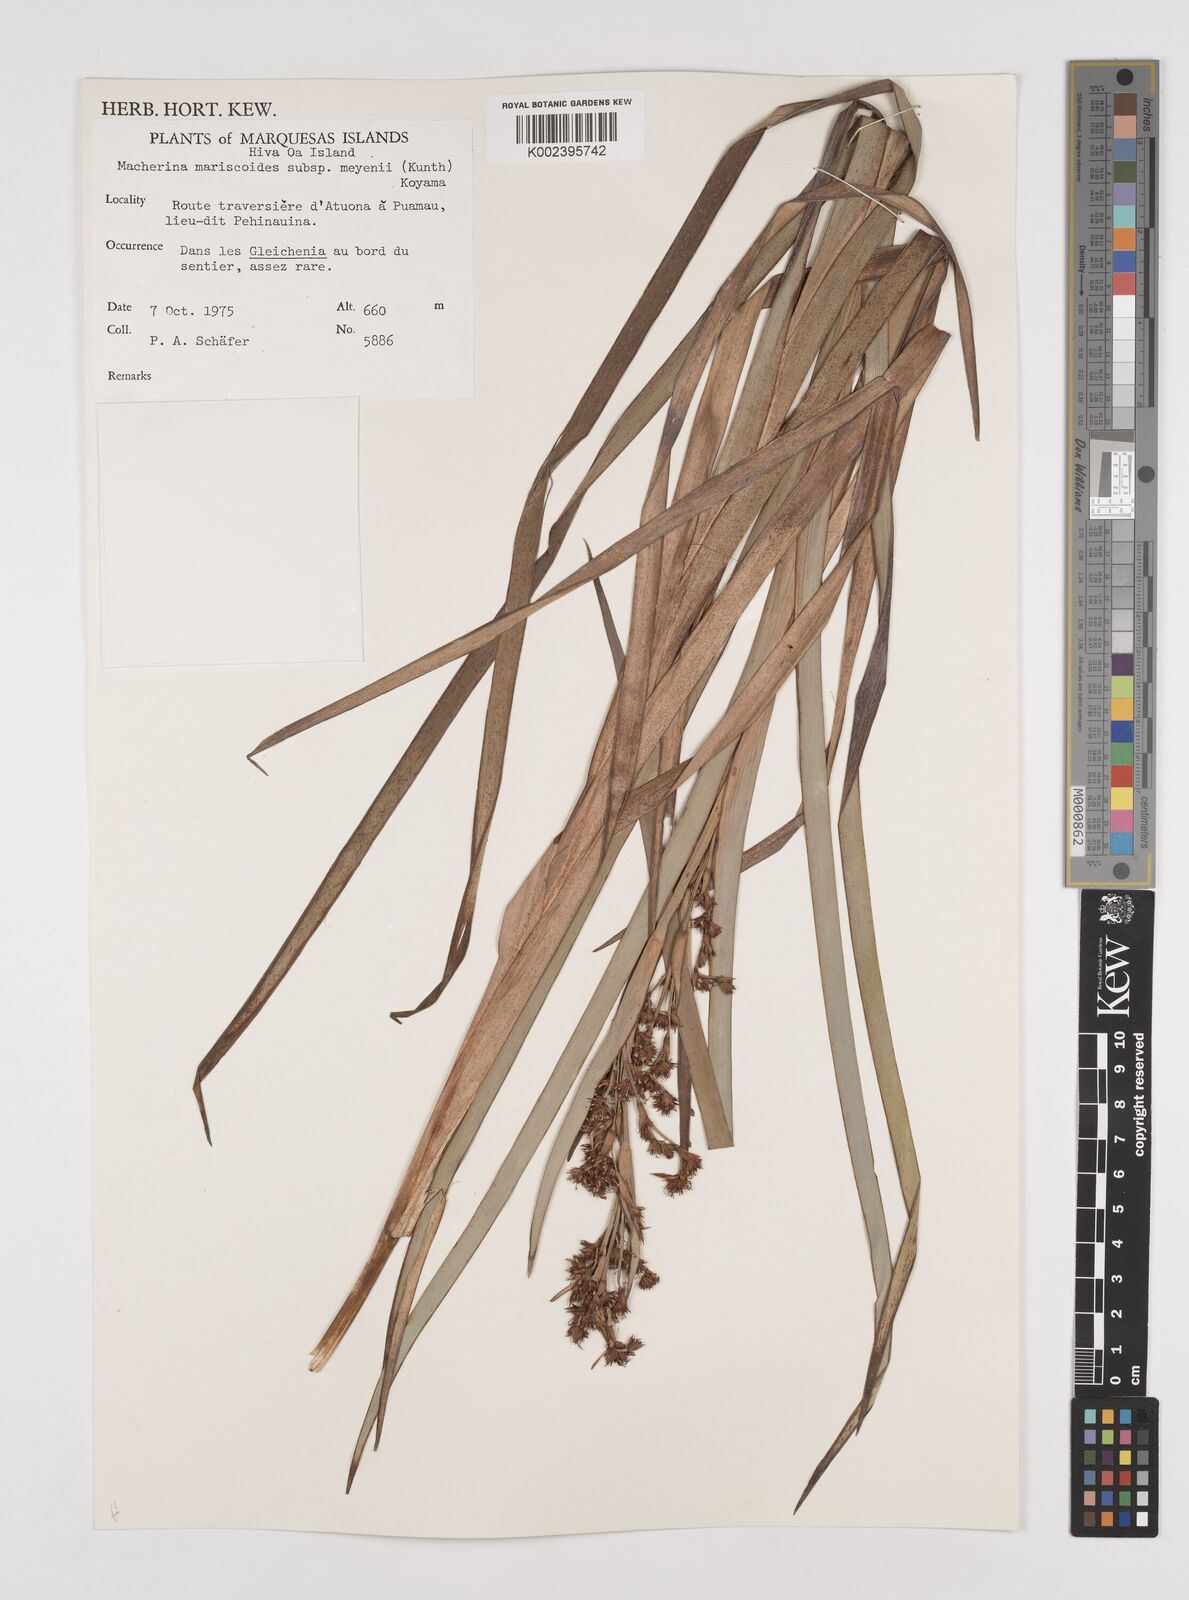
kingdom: Plantae
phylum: Tracheophyta
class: Liliopsida
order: Poales
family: Cyperaceae
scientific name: Cyperaceae
